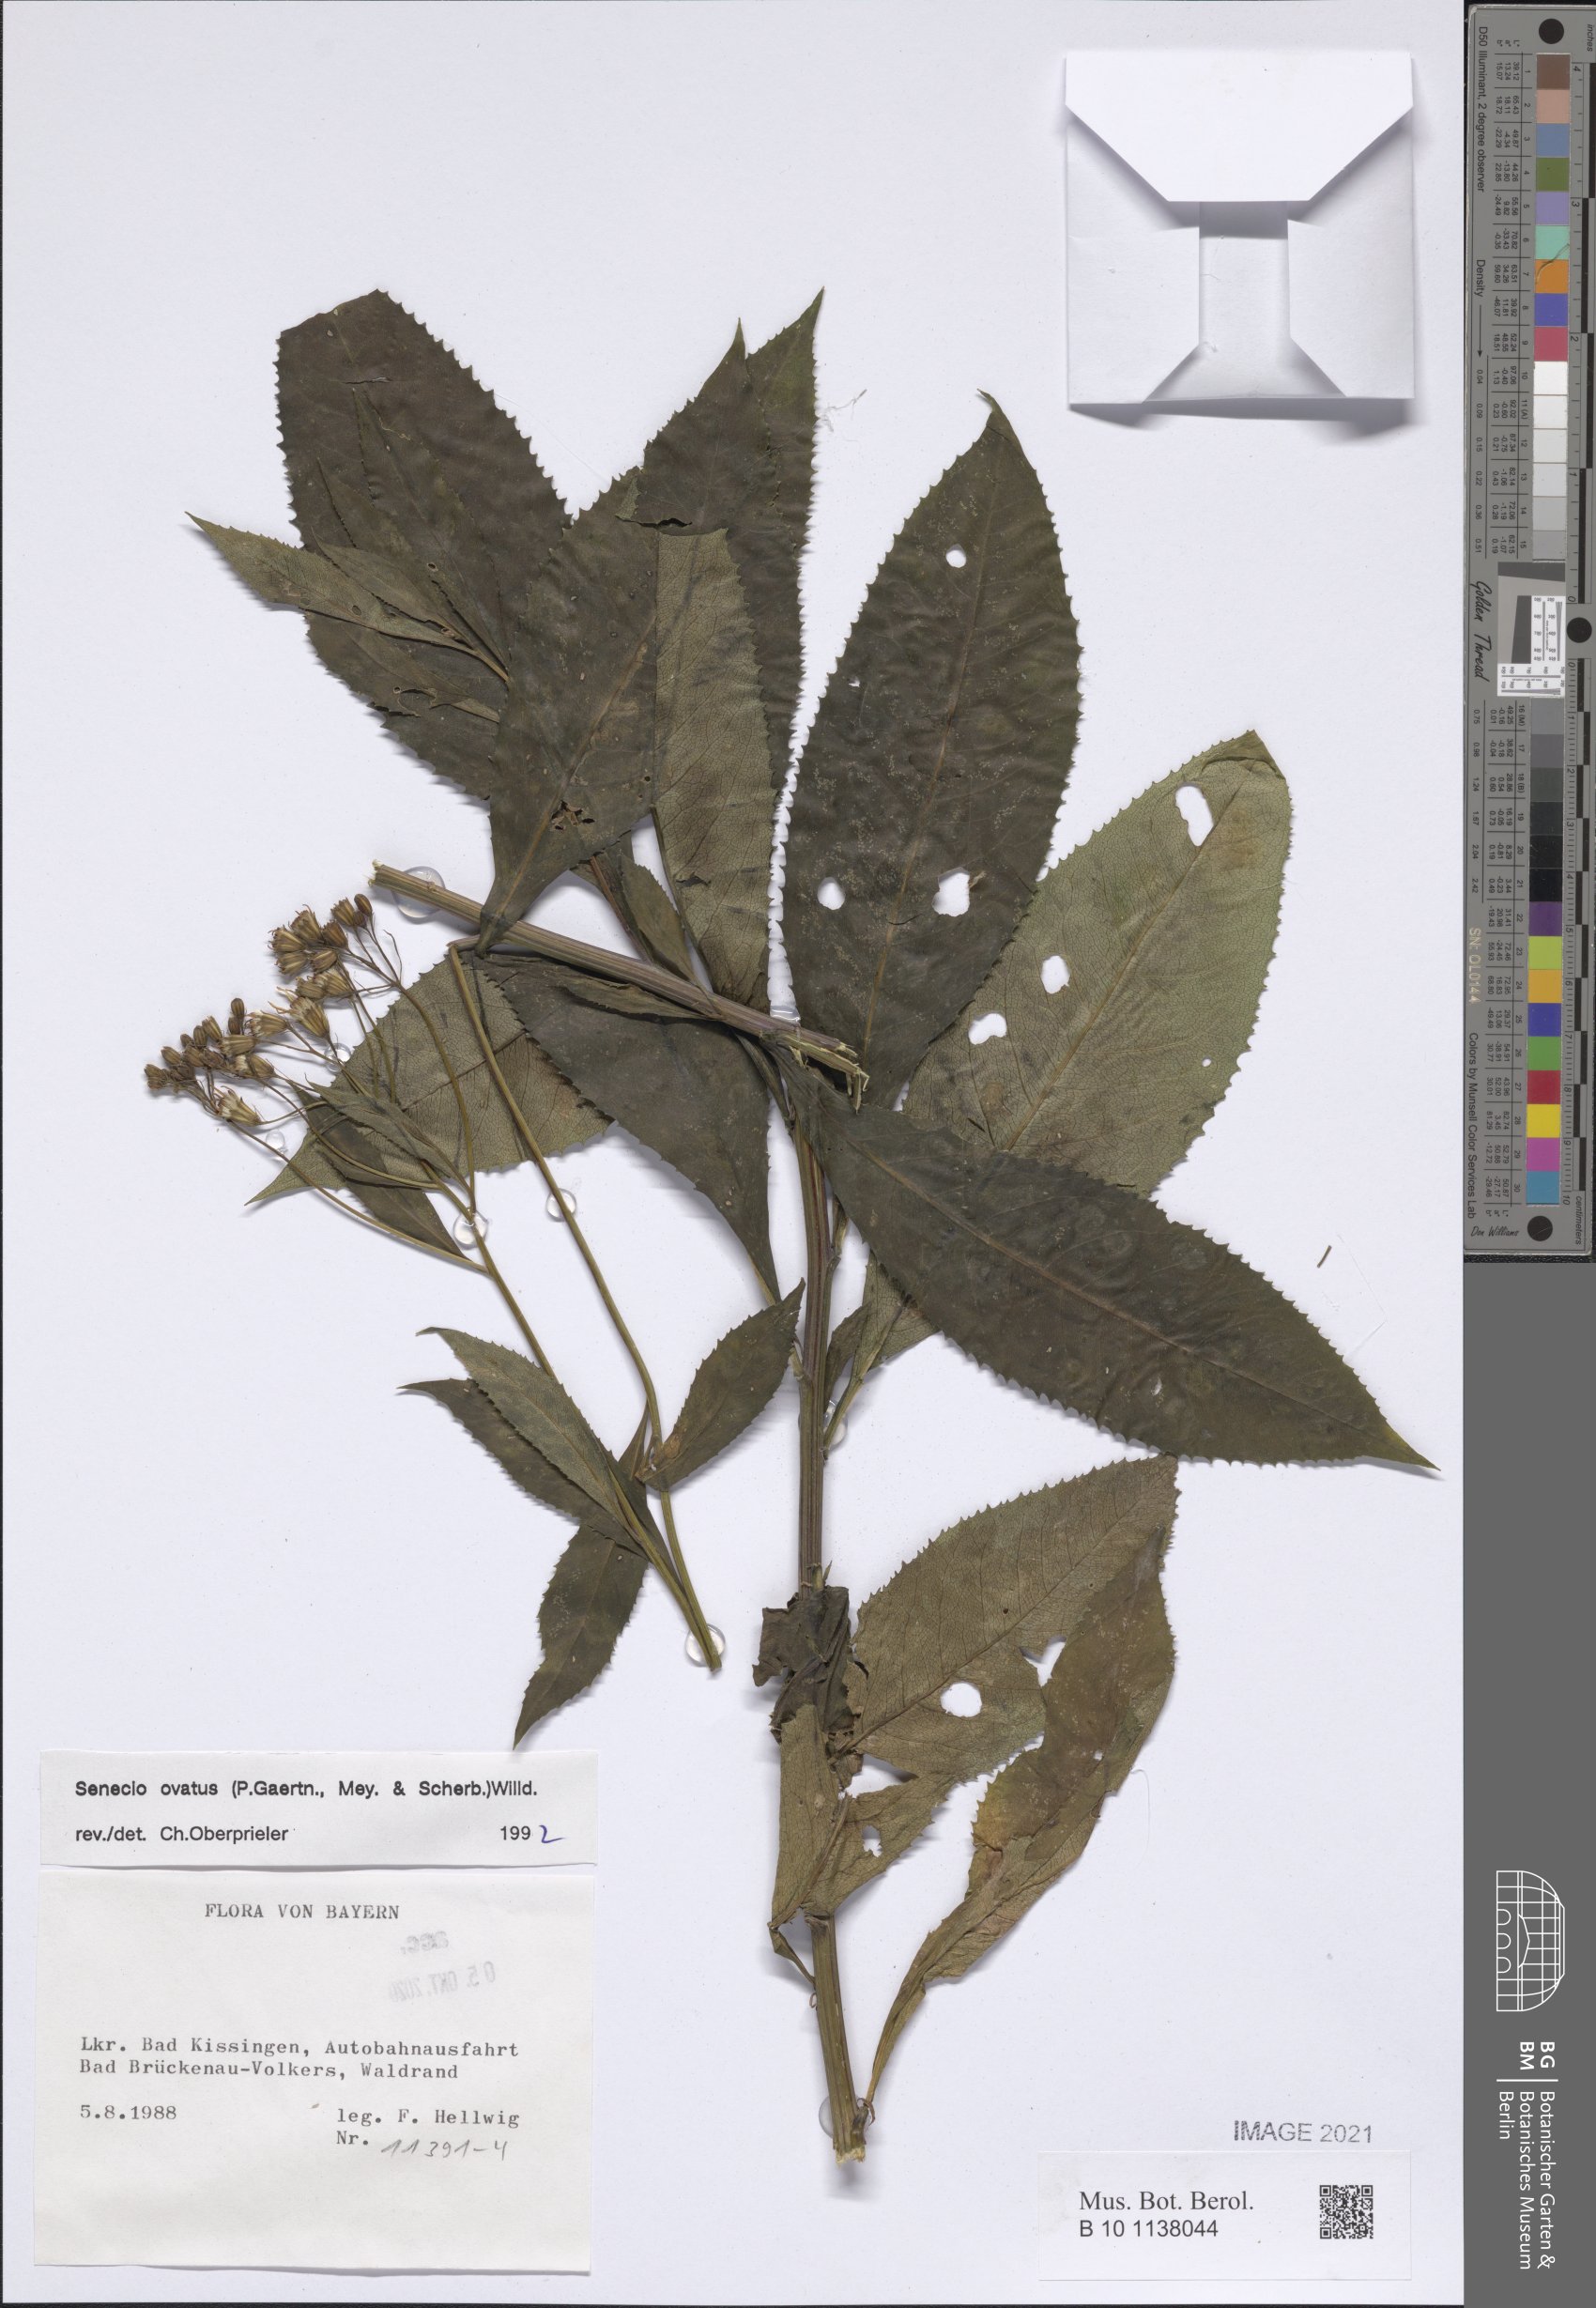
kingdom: Plantae
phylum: Tracheophyta
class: Magnoliopsida
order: Asterales
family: Asteraceae
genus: Senecio
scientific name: Senecio ovatus
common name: Wood ragwort
